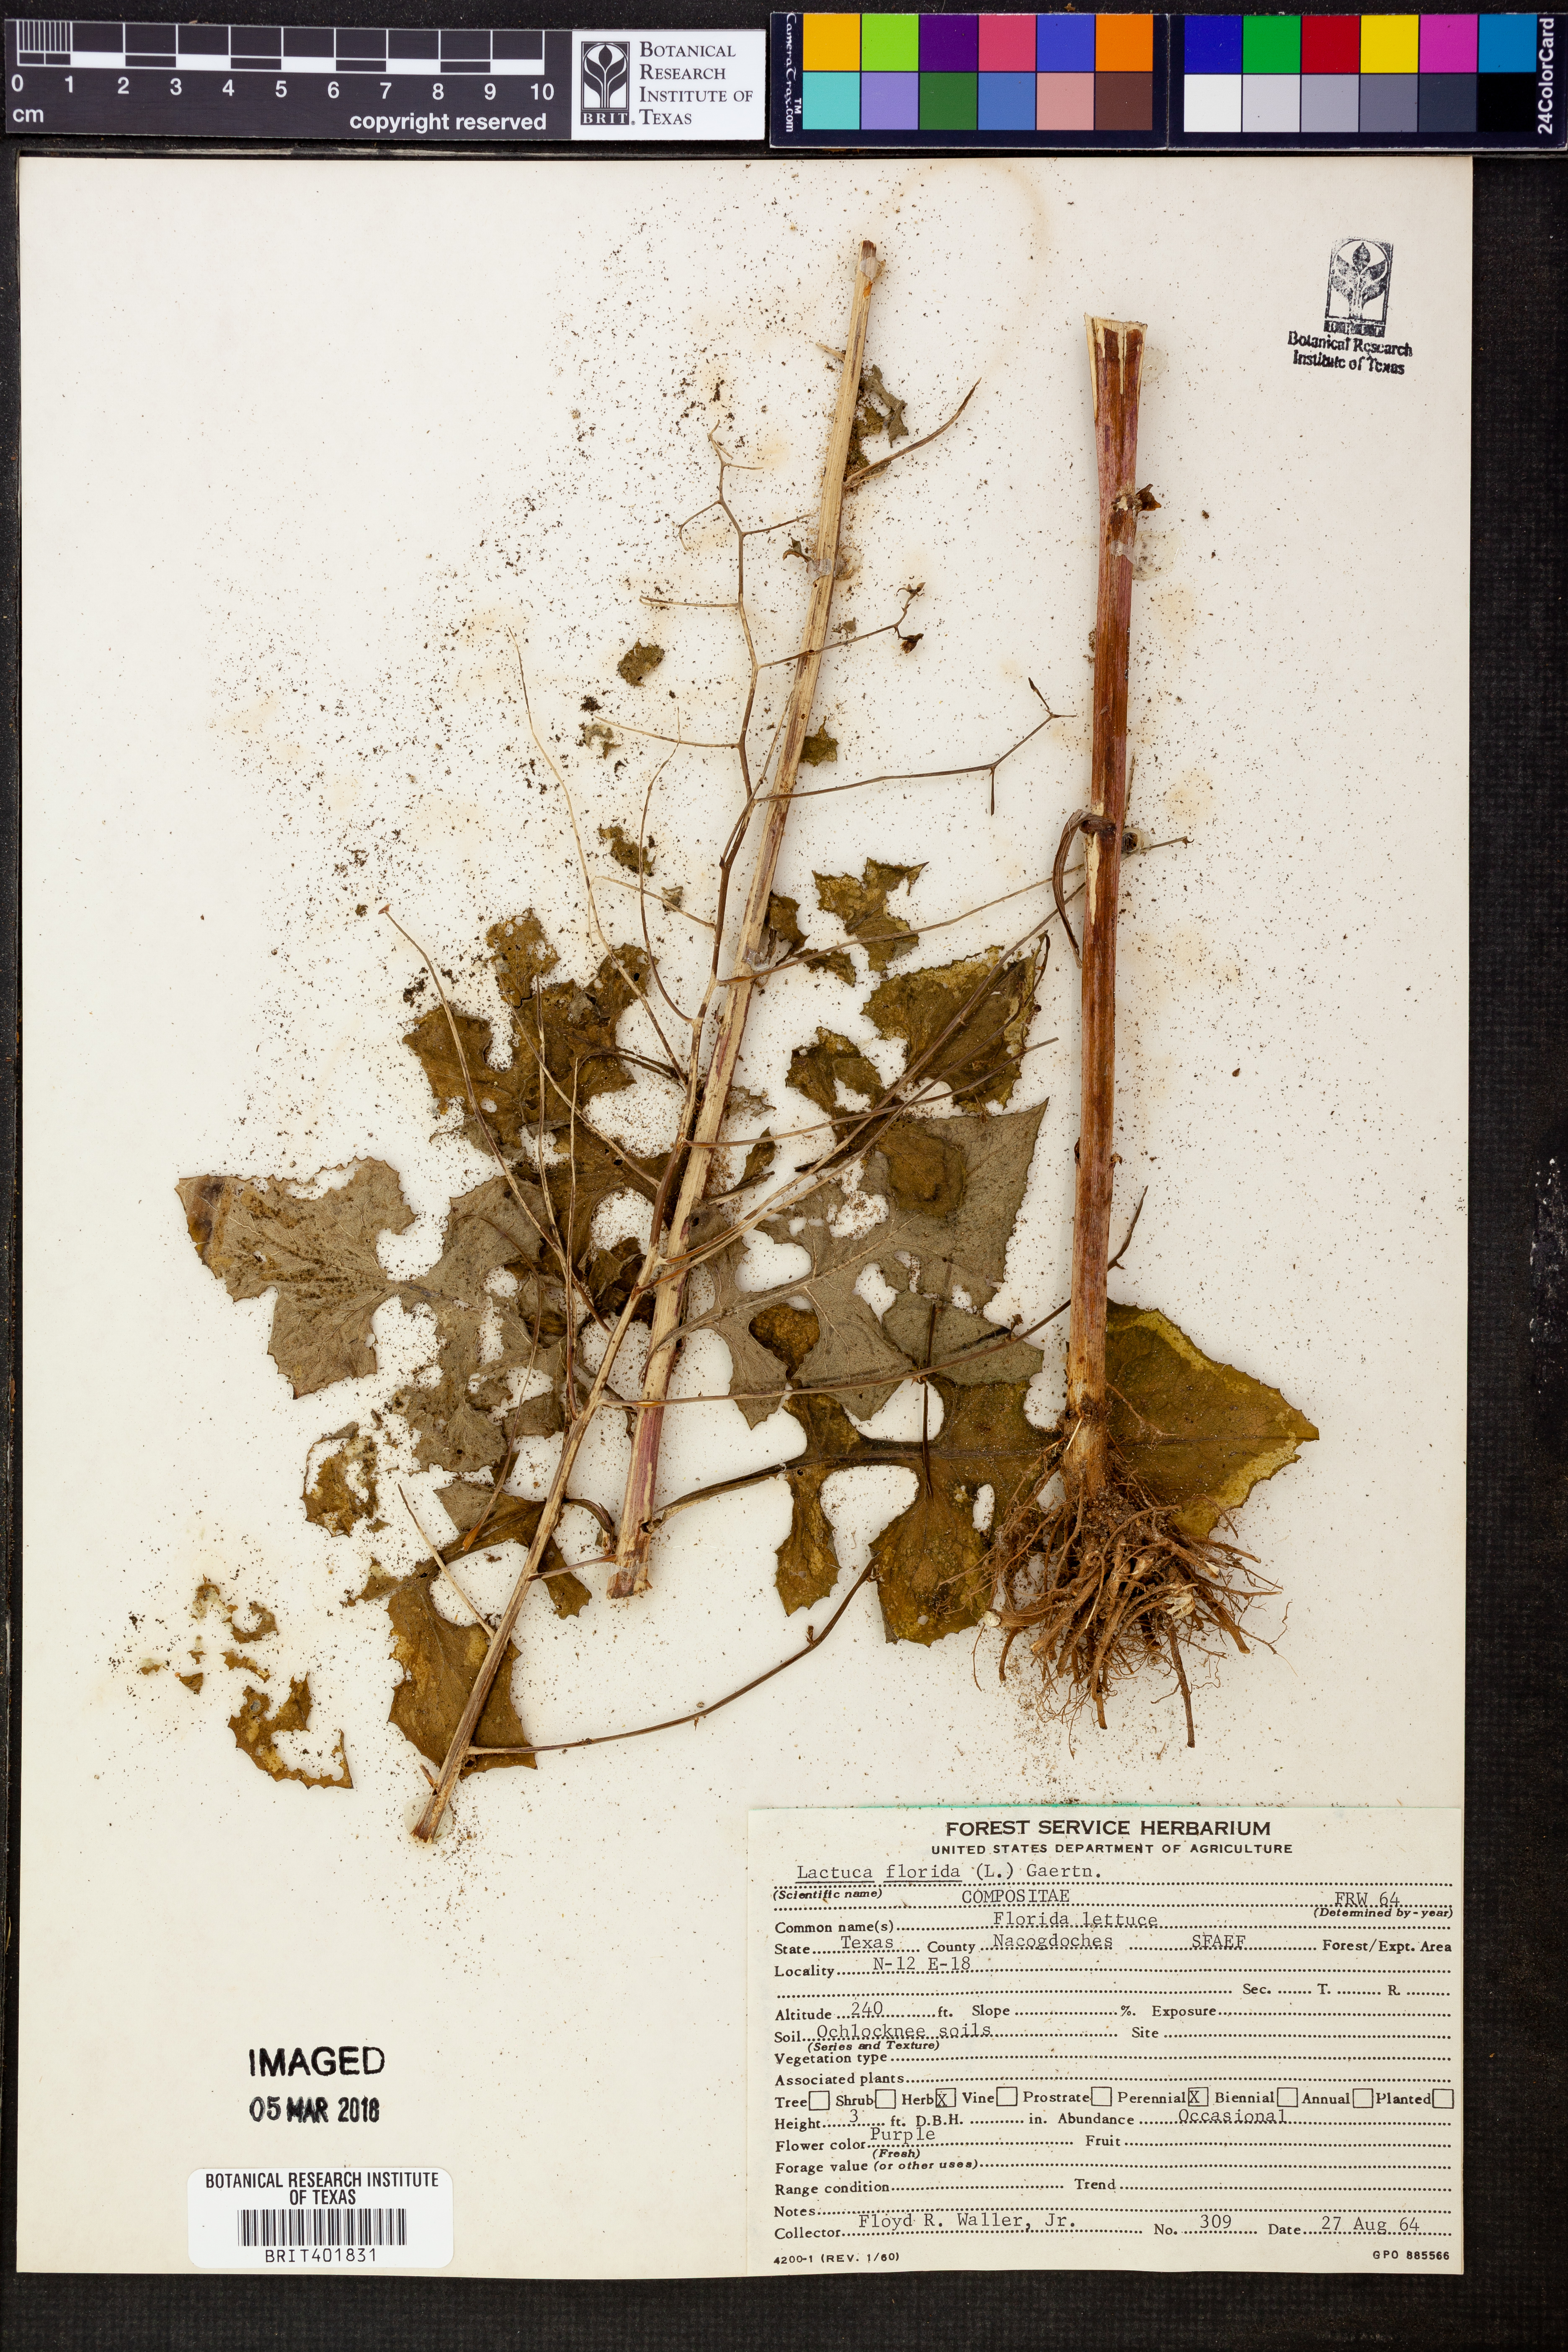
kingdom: Plantae
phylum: Tracheophyta
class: Magnoliopsida
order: Asterales
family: Asteraceae
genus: Lactuca
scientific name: Lactuca floridana
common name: Woodland lettuce
